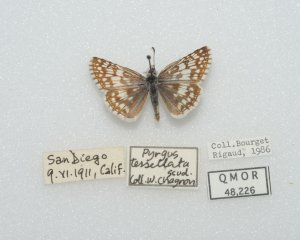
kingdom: Animalia
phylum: Arthropoda
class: Insecta
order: Lepidoptera
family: Hesperiidae
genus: Pyrgus
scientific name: Pyrgus communis
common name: Common Checkered-Skipper
